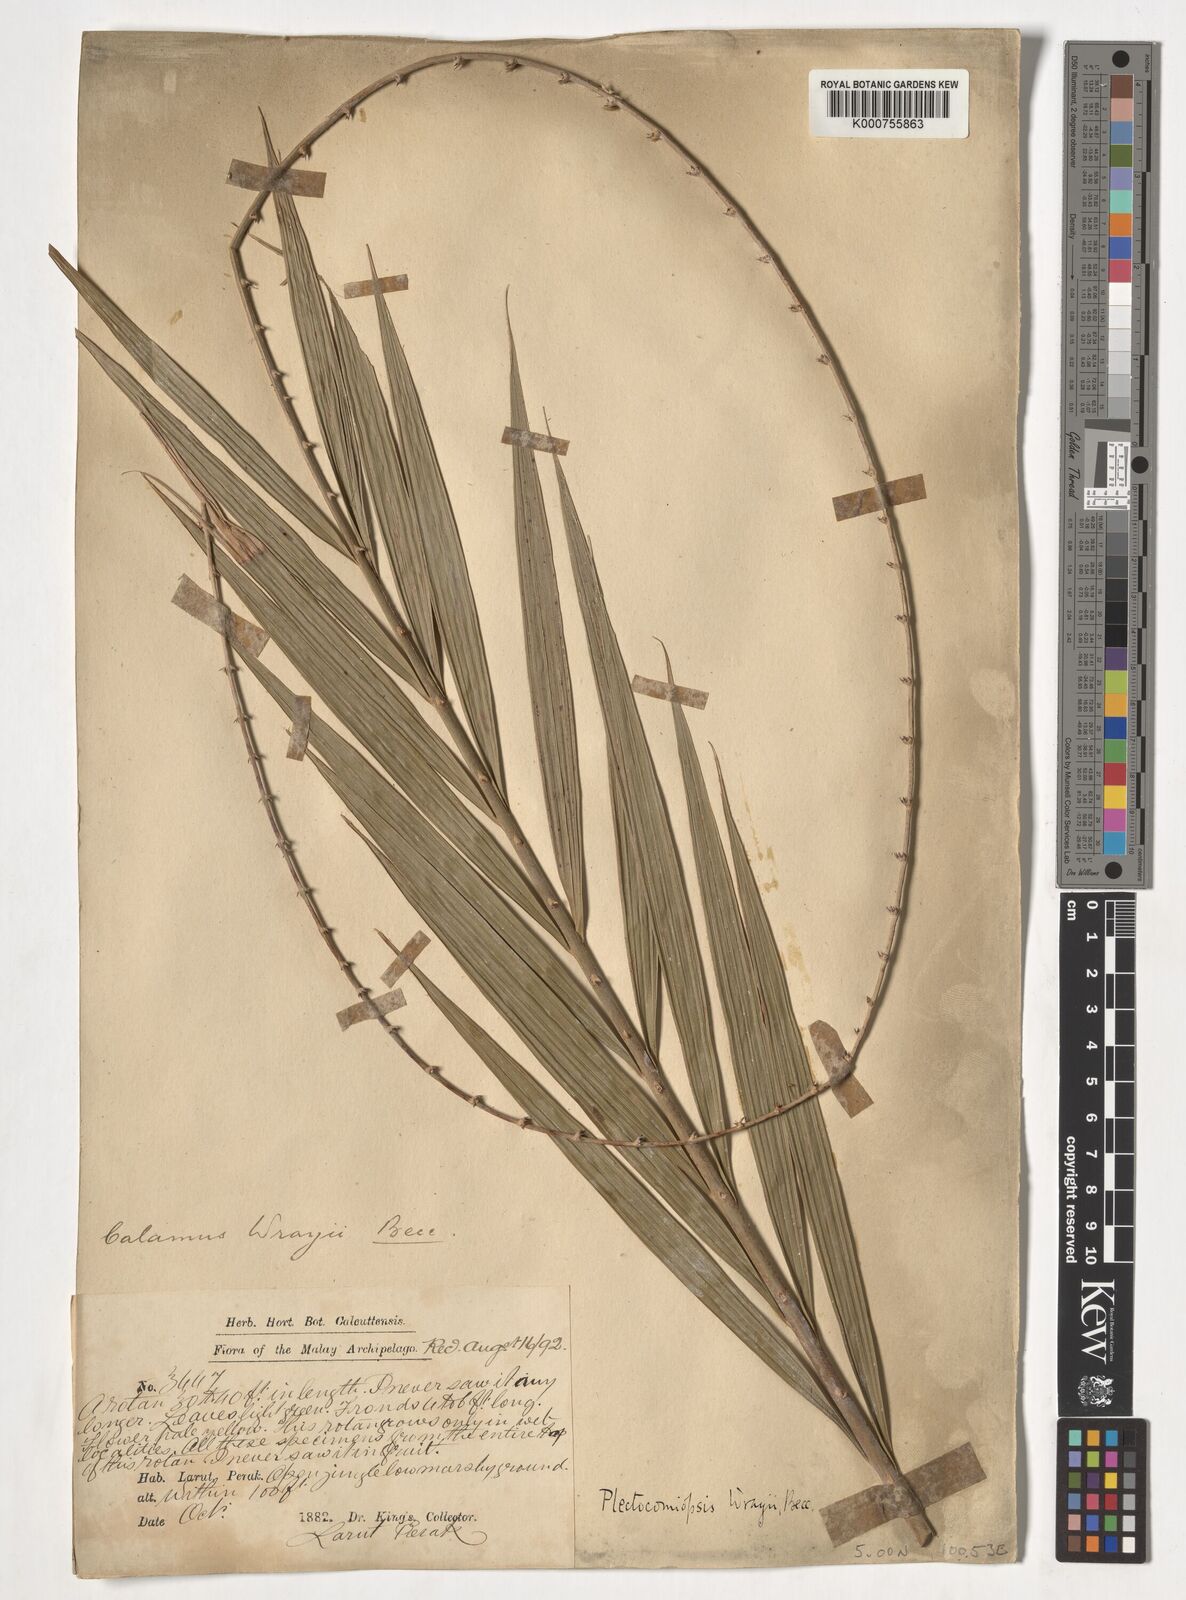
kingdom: Plantae
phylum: Tracheophyta
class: Liliopsida
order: Arecales
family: Arecaceae
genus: Plectocomiopsis
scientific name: Plectocomiopsis wrayi
